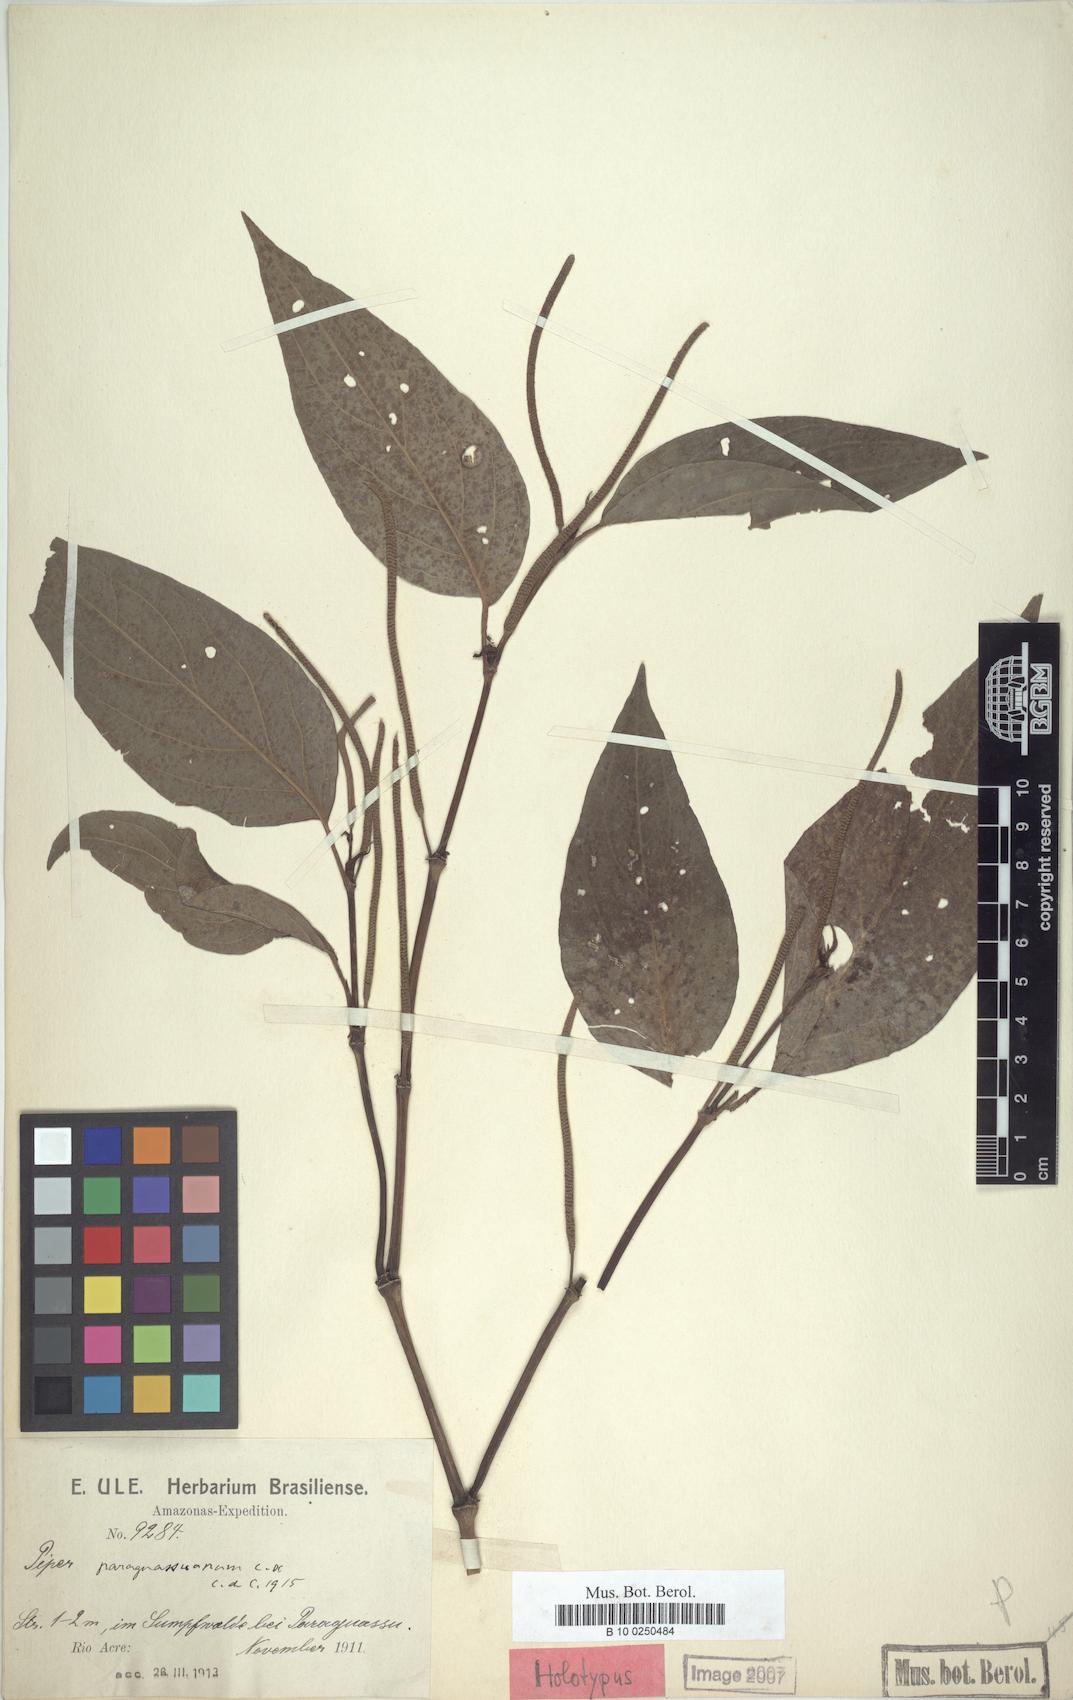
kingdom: Plantae
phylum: Tracheophyta
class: Magnoliopsida
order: Piperales
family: Piperaceae
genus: Piper
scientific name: Piper paraguassuanum
